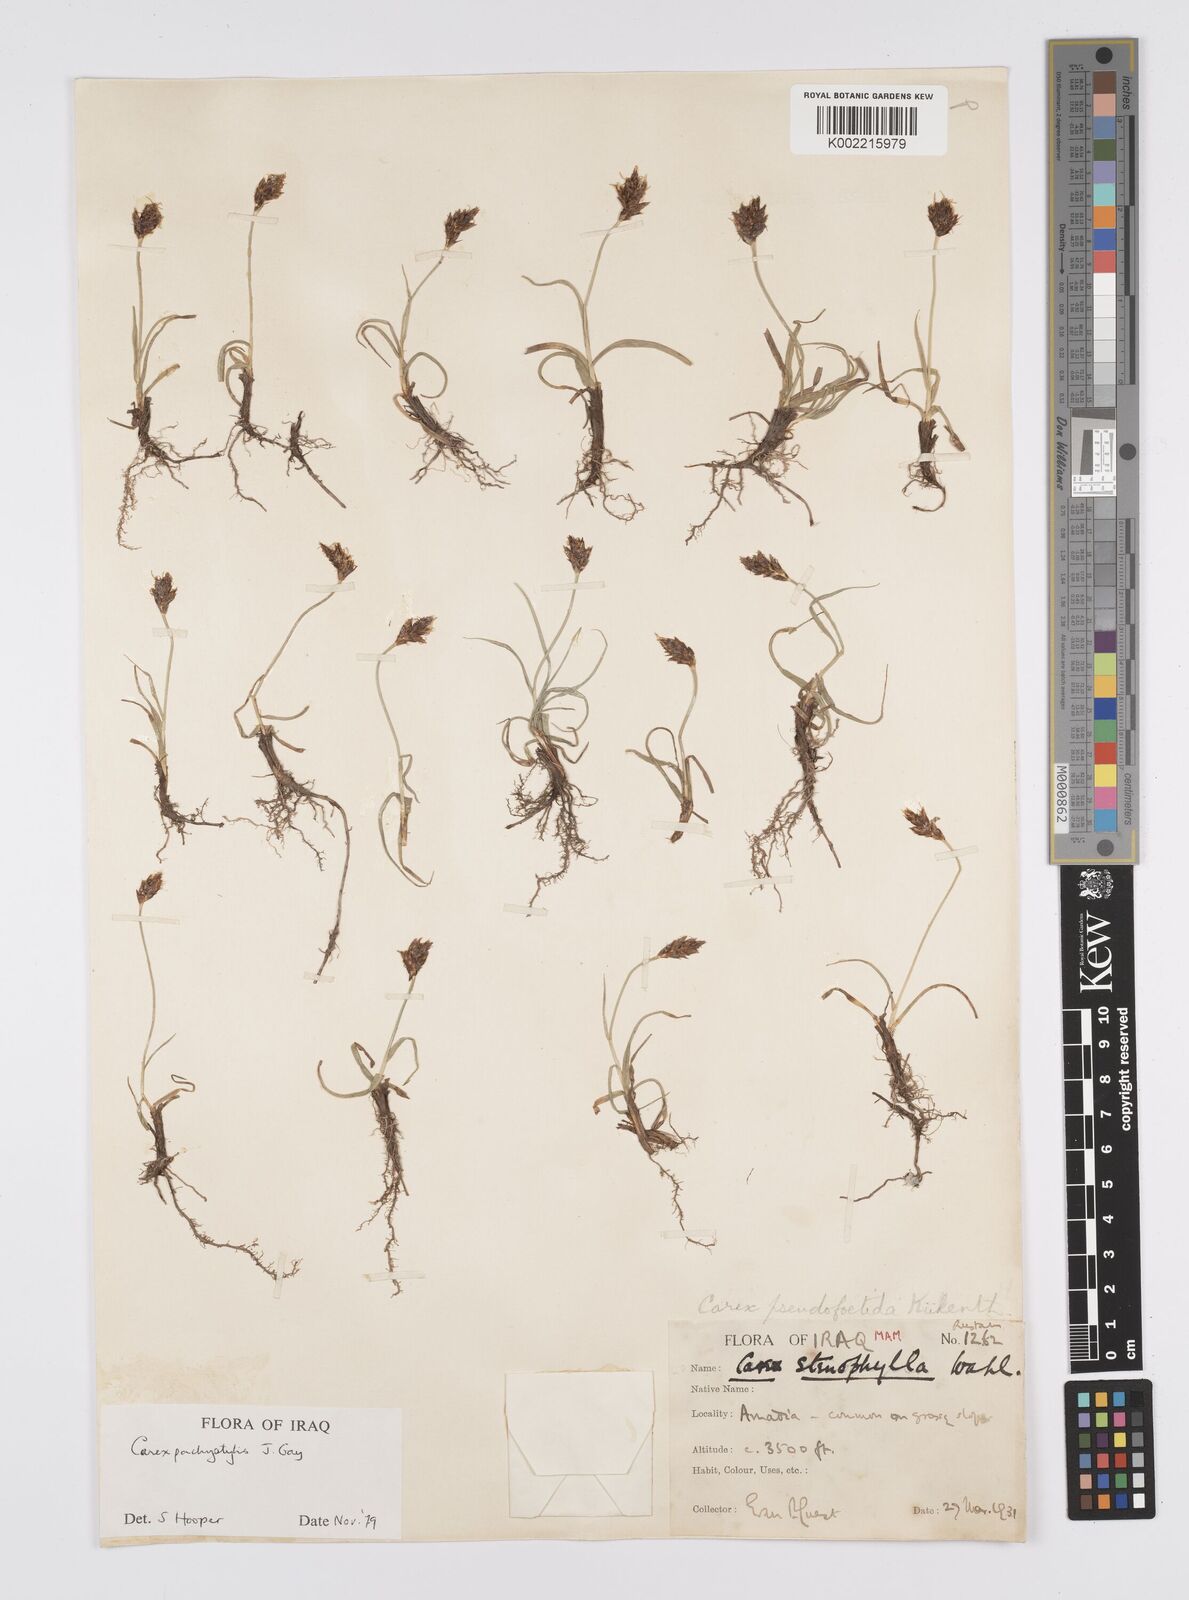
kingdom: Plantae
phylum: Tracheophyta
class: Liliopsida
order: Poales
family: Cyperaceae
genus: Carex
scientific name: Carex pachystylis
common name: Thick-stem sedge
